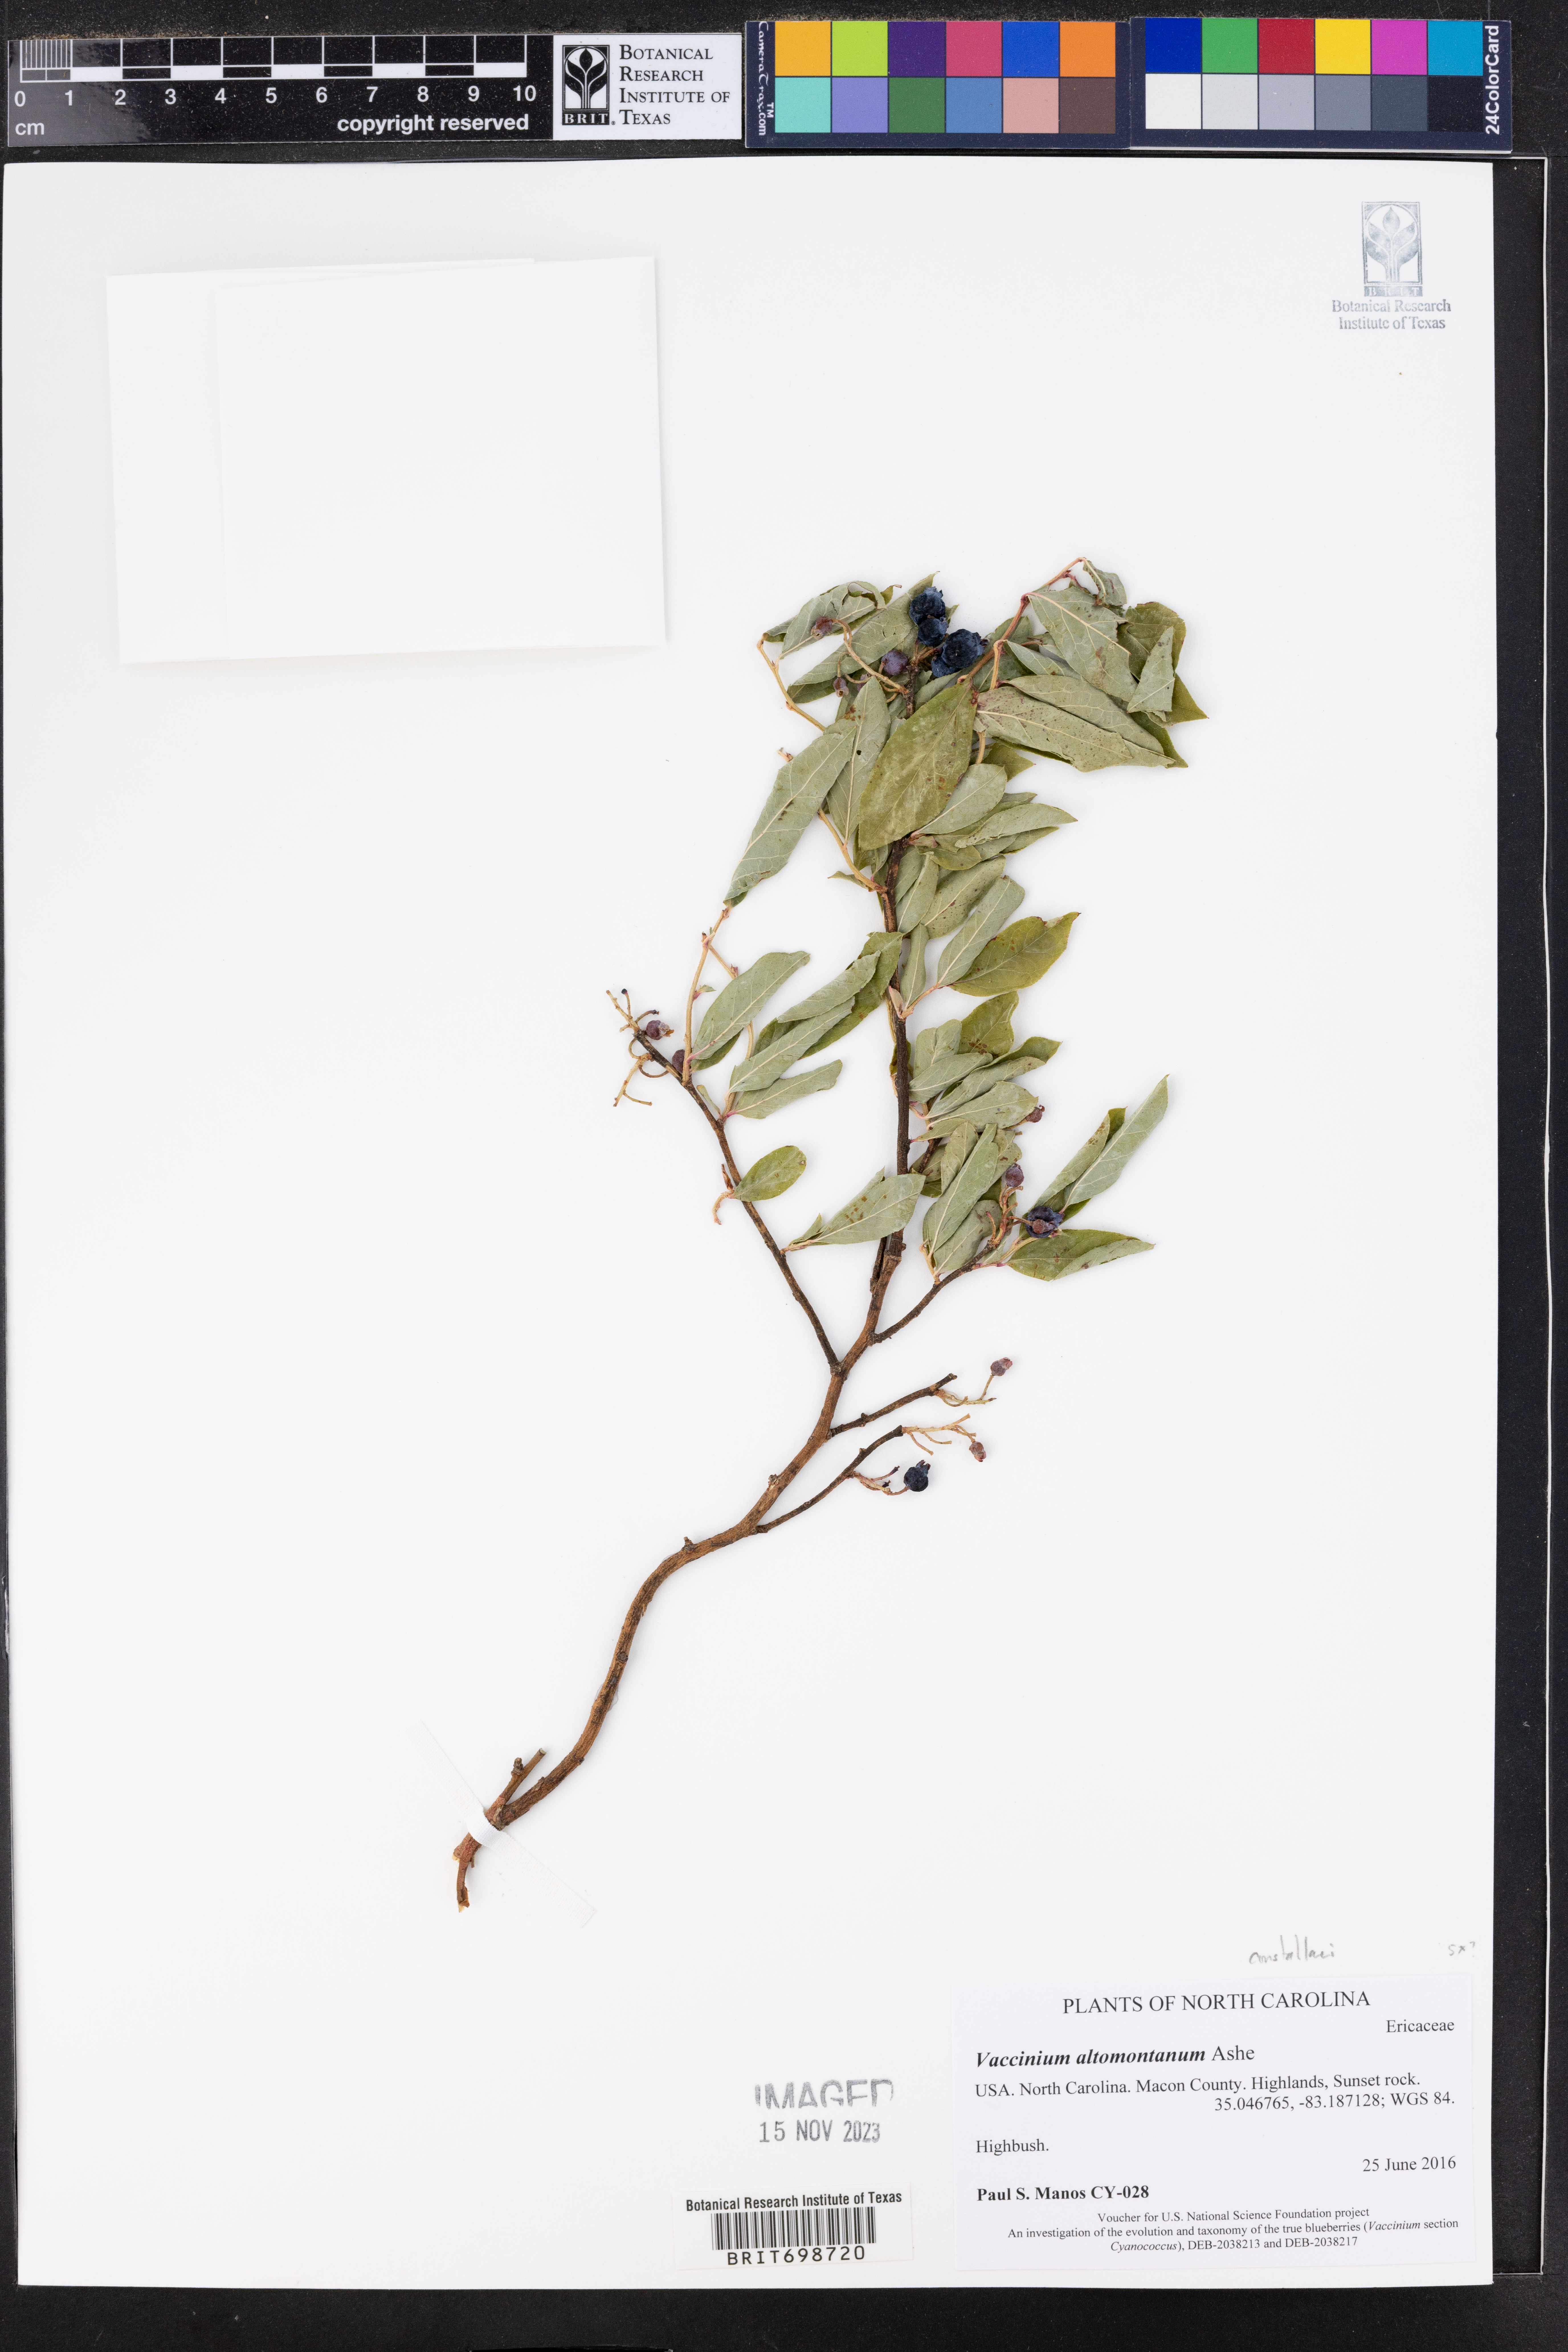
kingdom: Plantae
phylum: Tracheophyta
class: Magnoliopsida
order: Ericales
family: Ericaceae
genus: Vaccinium
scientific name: Vaccinium pallidum
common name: Blue ridge blueberry
